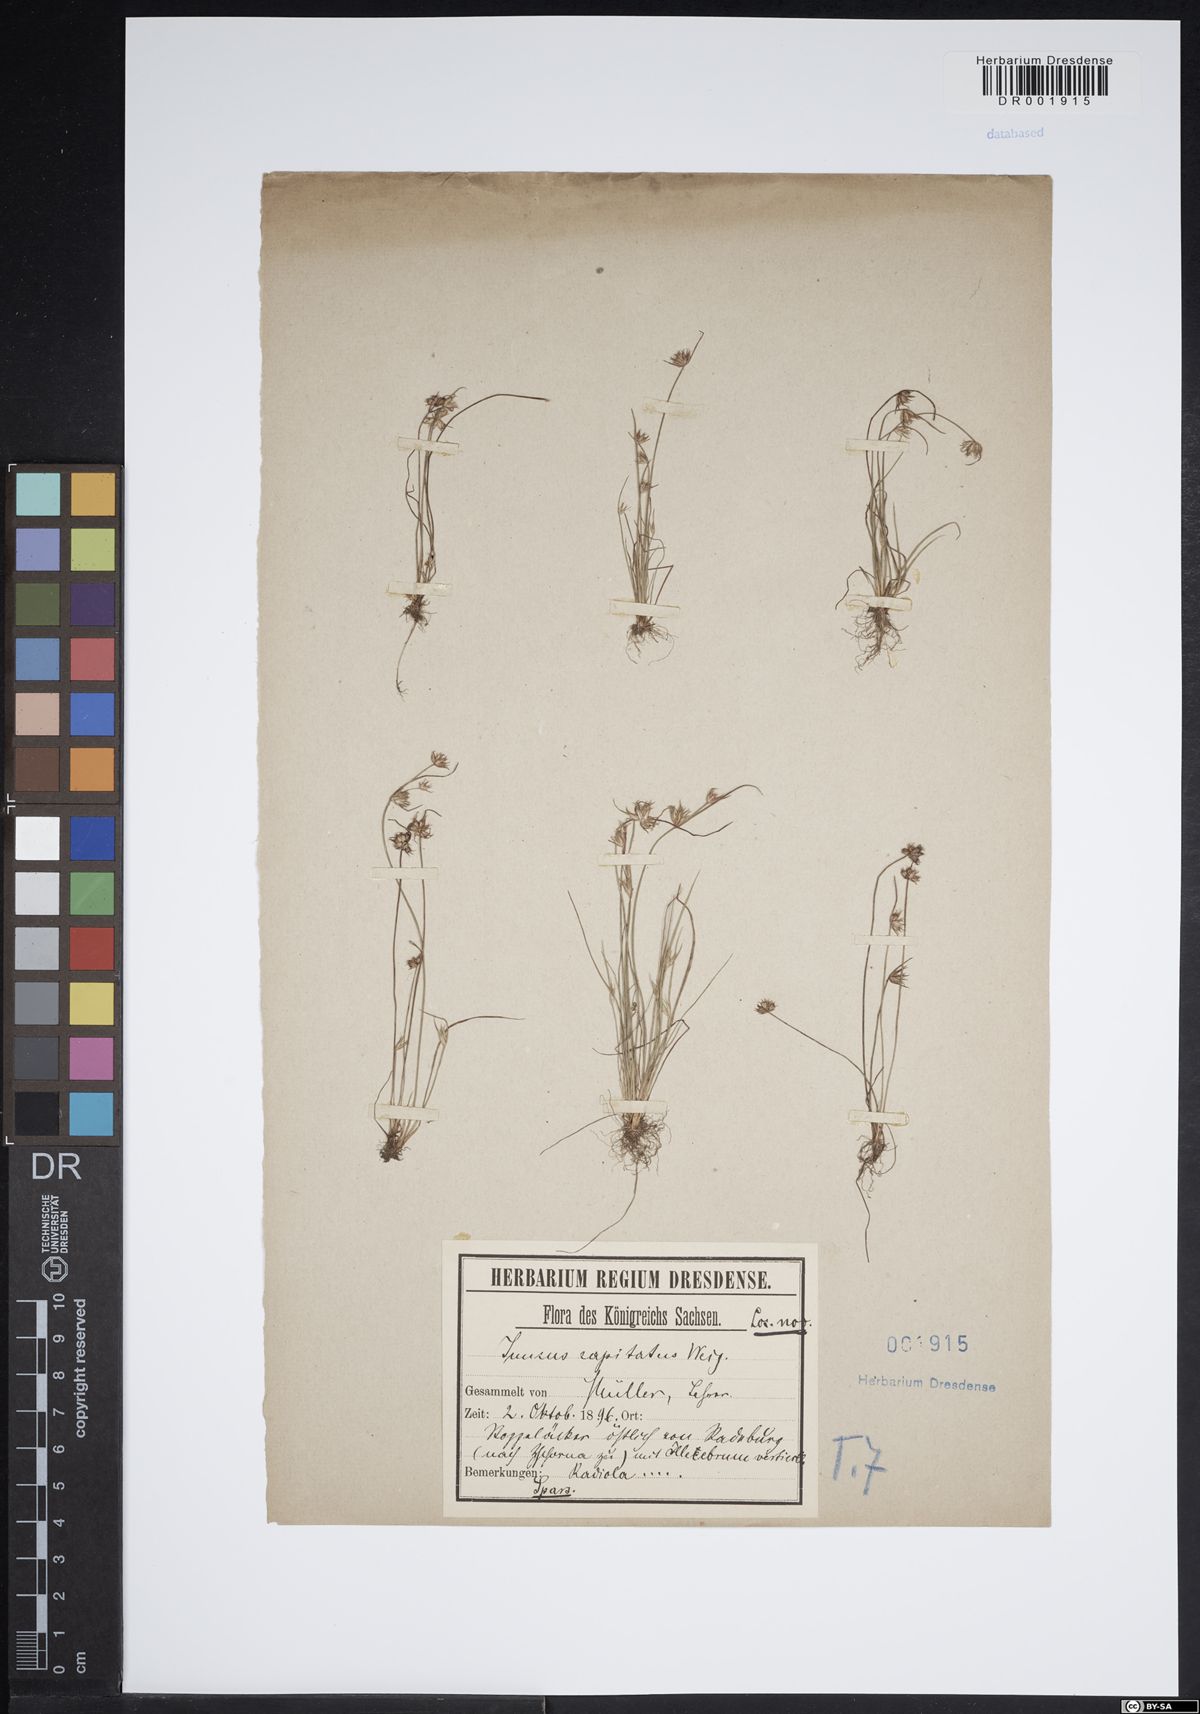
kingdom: Plantae
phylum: Tracheophyta
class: Liliopsida
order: Poales
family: Juncaceae
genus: Juncus
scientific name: Juncus capitatus
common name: Dwarf rush
